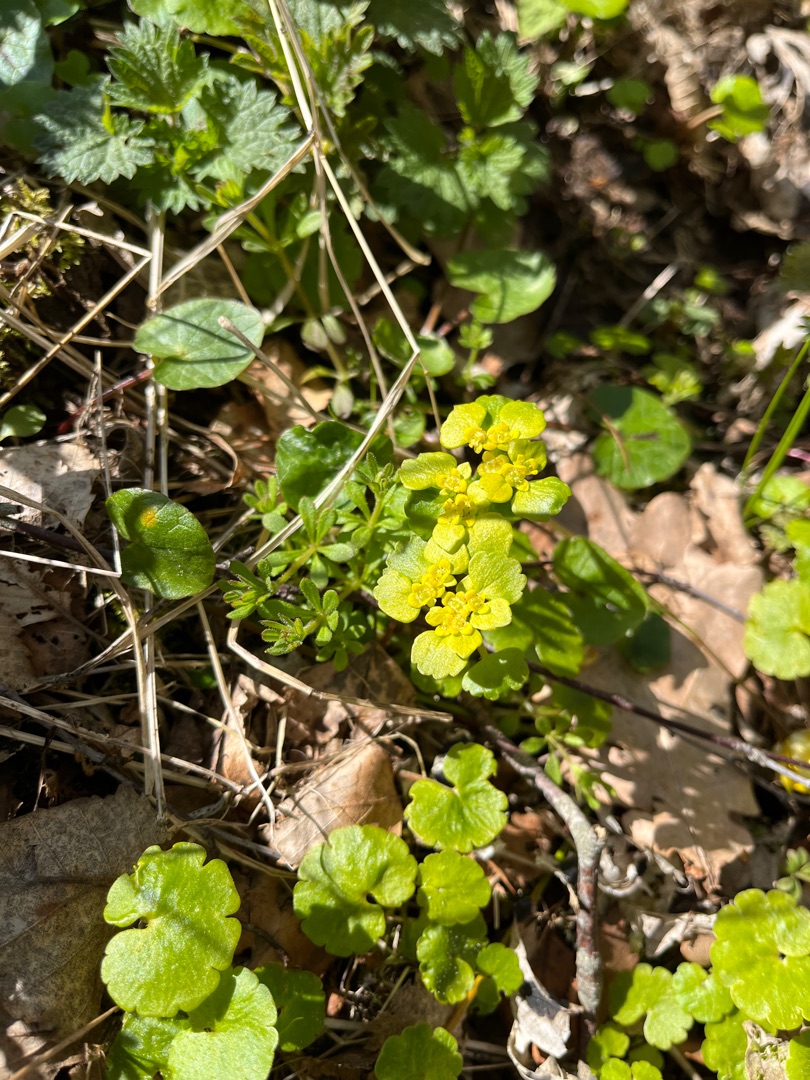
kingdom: Plantae
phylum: Tracheophyta
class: Magnoliopsida
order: Saxifragales
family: Saxifragaceae
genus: Chrysosplenium
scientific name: Chrysosplenium alternifolium
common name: Almindelig milturt
